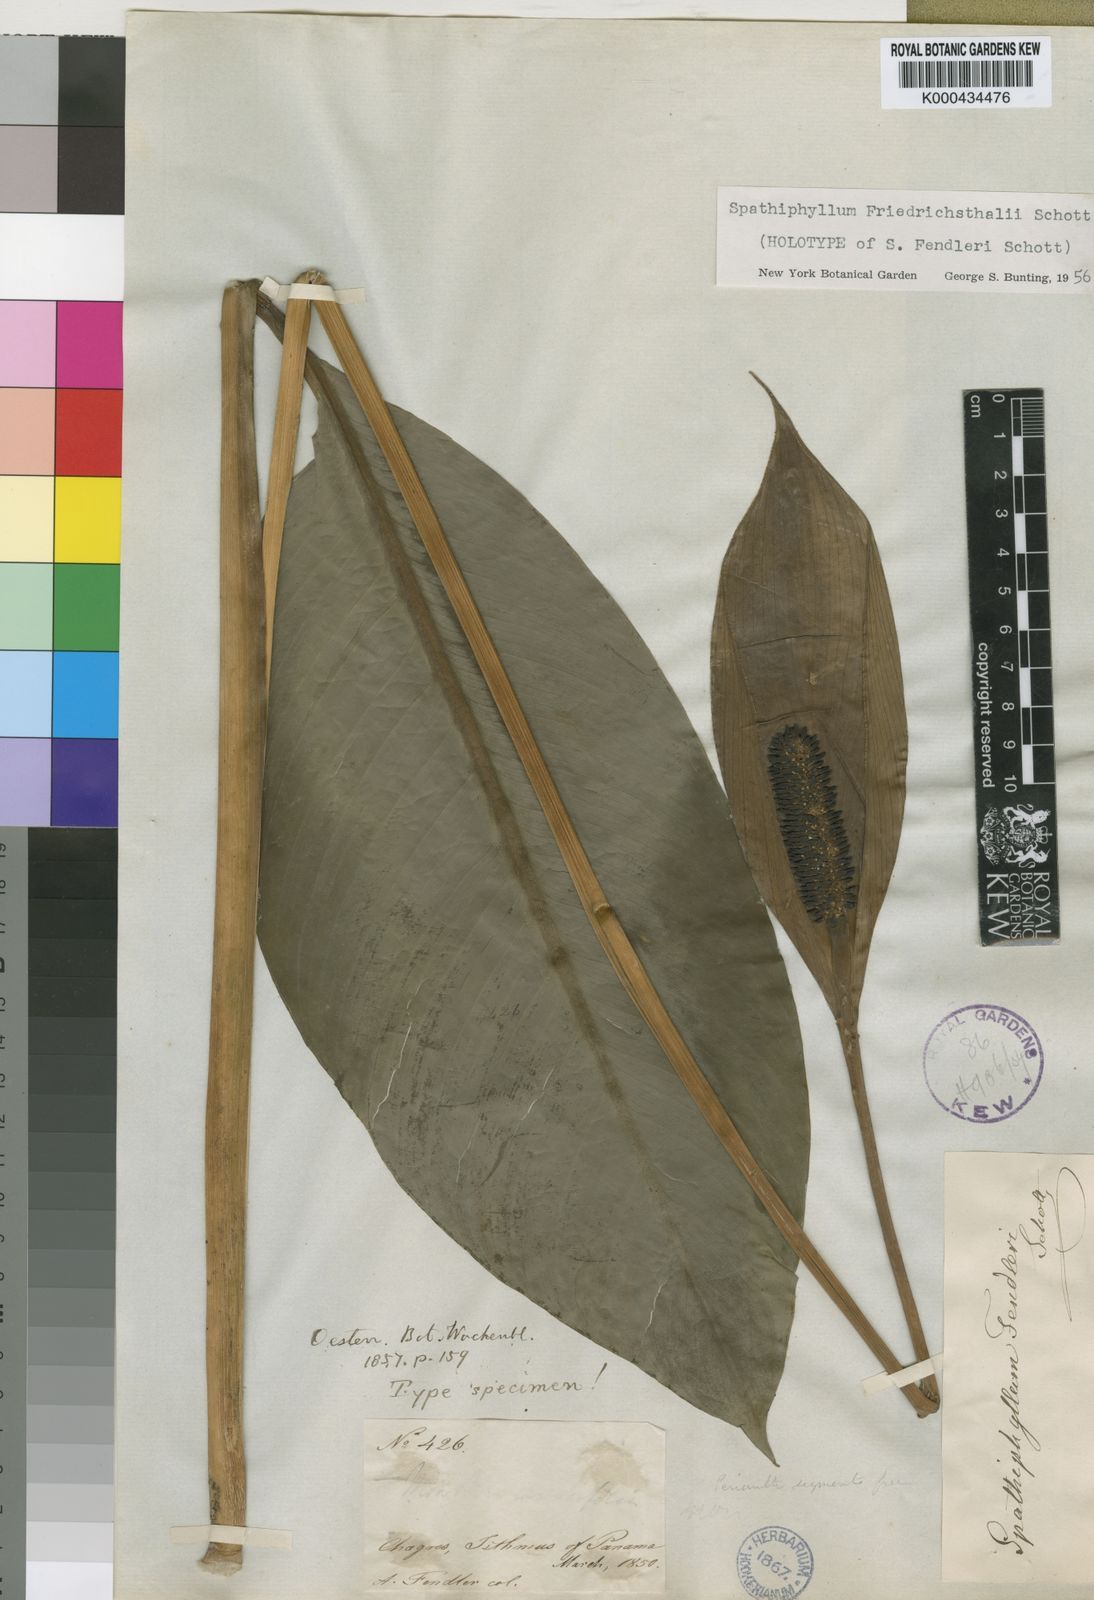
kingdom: Plantae
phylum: Tracheophyta
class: Liliopsida
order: Alismatales
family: Araceae
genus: Spathiphyllum
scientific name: Spathiphyllum friedrichsthalii
